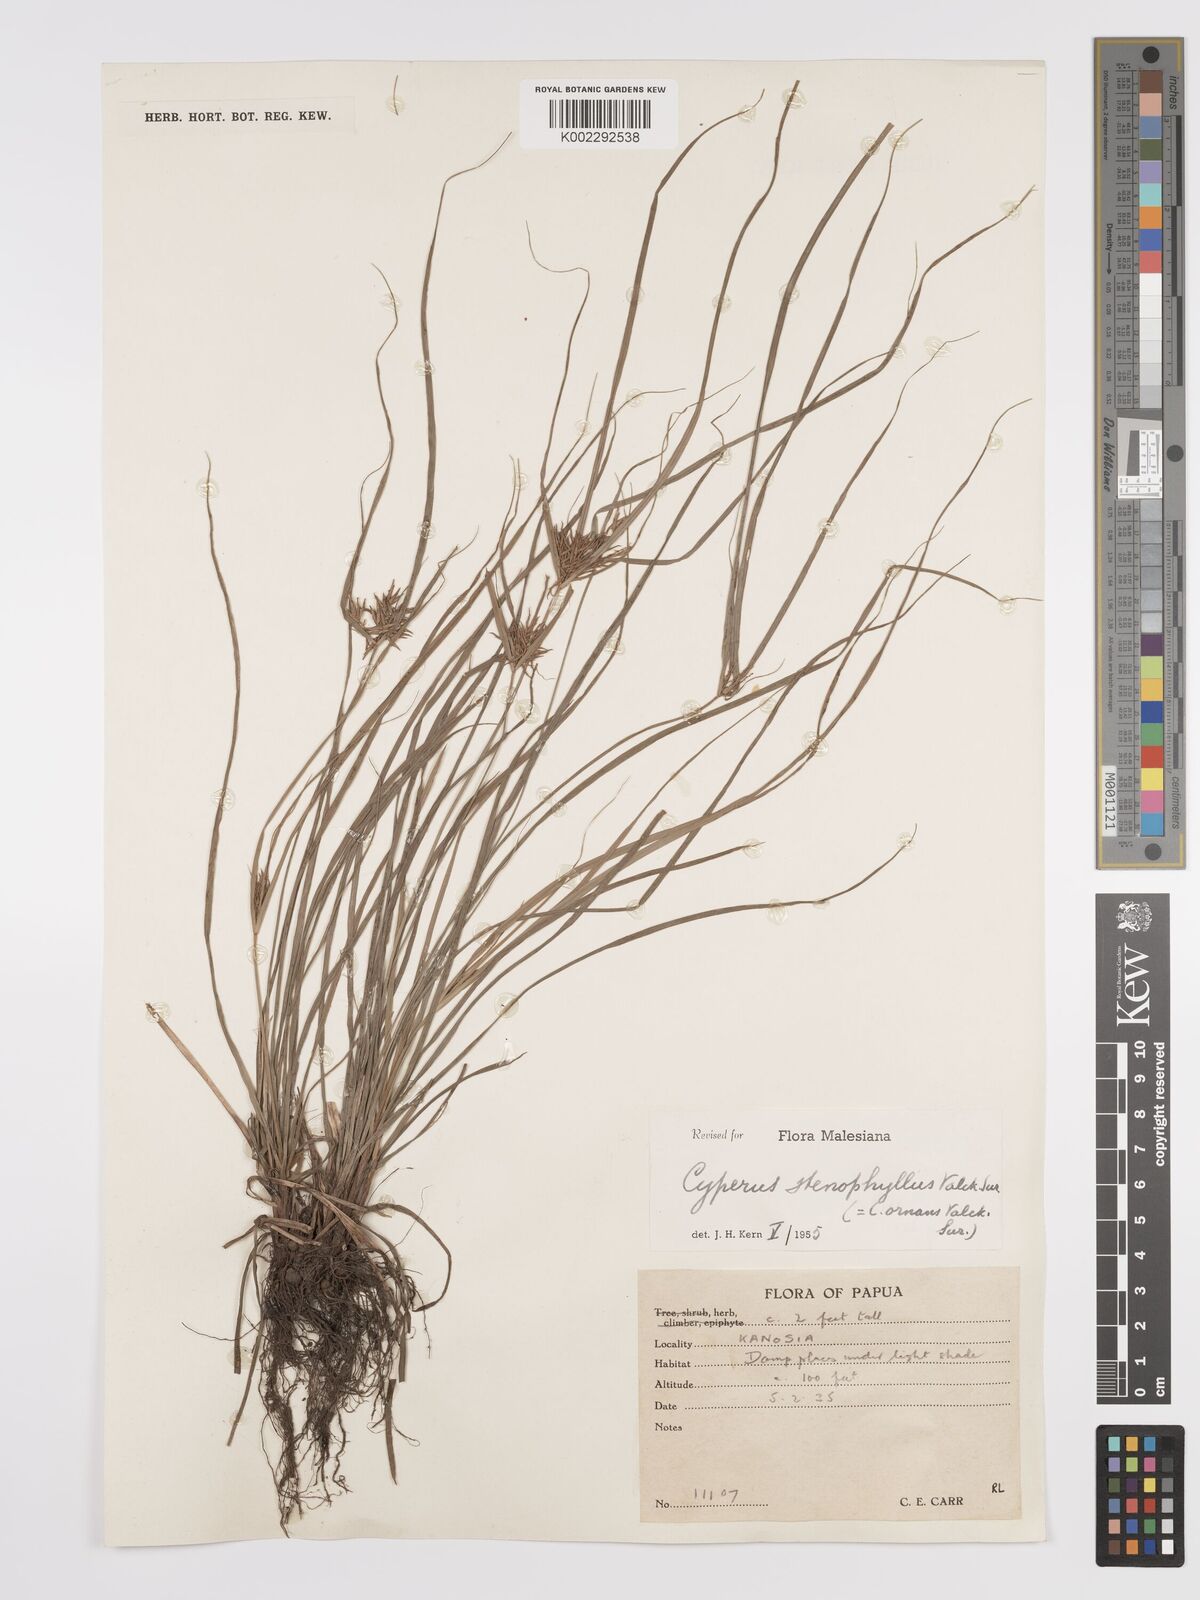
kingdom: Plantae
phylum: Tracheophyta
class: Liliopsida
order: Poales
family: Cyperaceae
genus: Cyperus
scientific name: Cyperus stenophyllus
